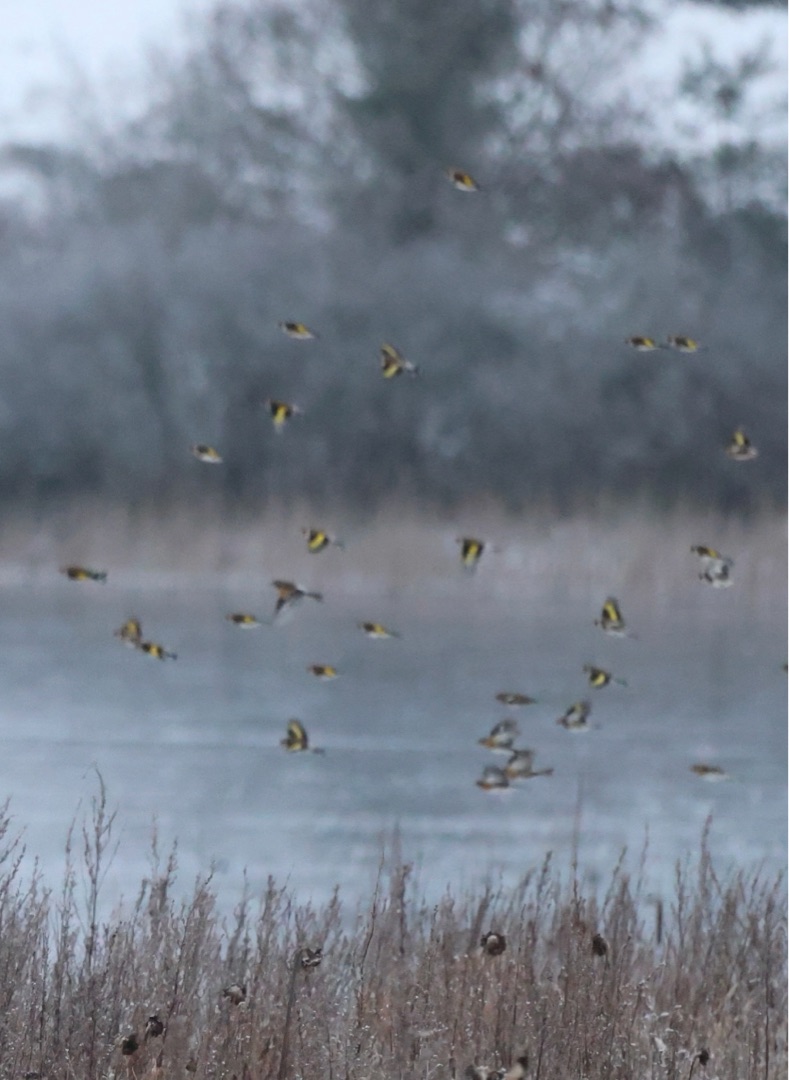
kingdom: Animalia
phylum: Chordata
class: Aves
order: Passeriformes
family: Fringillidae
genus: Carduelis
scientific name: Carduelis carduelis
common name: Stillits
